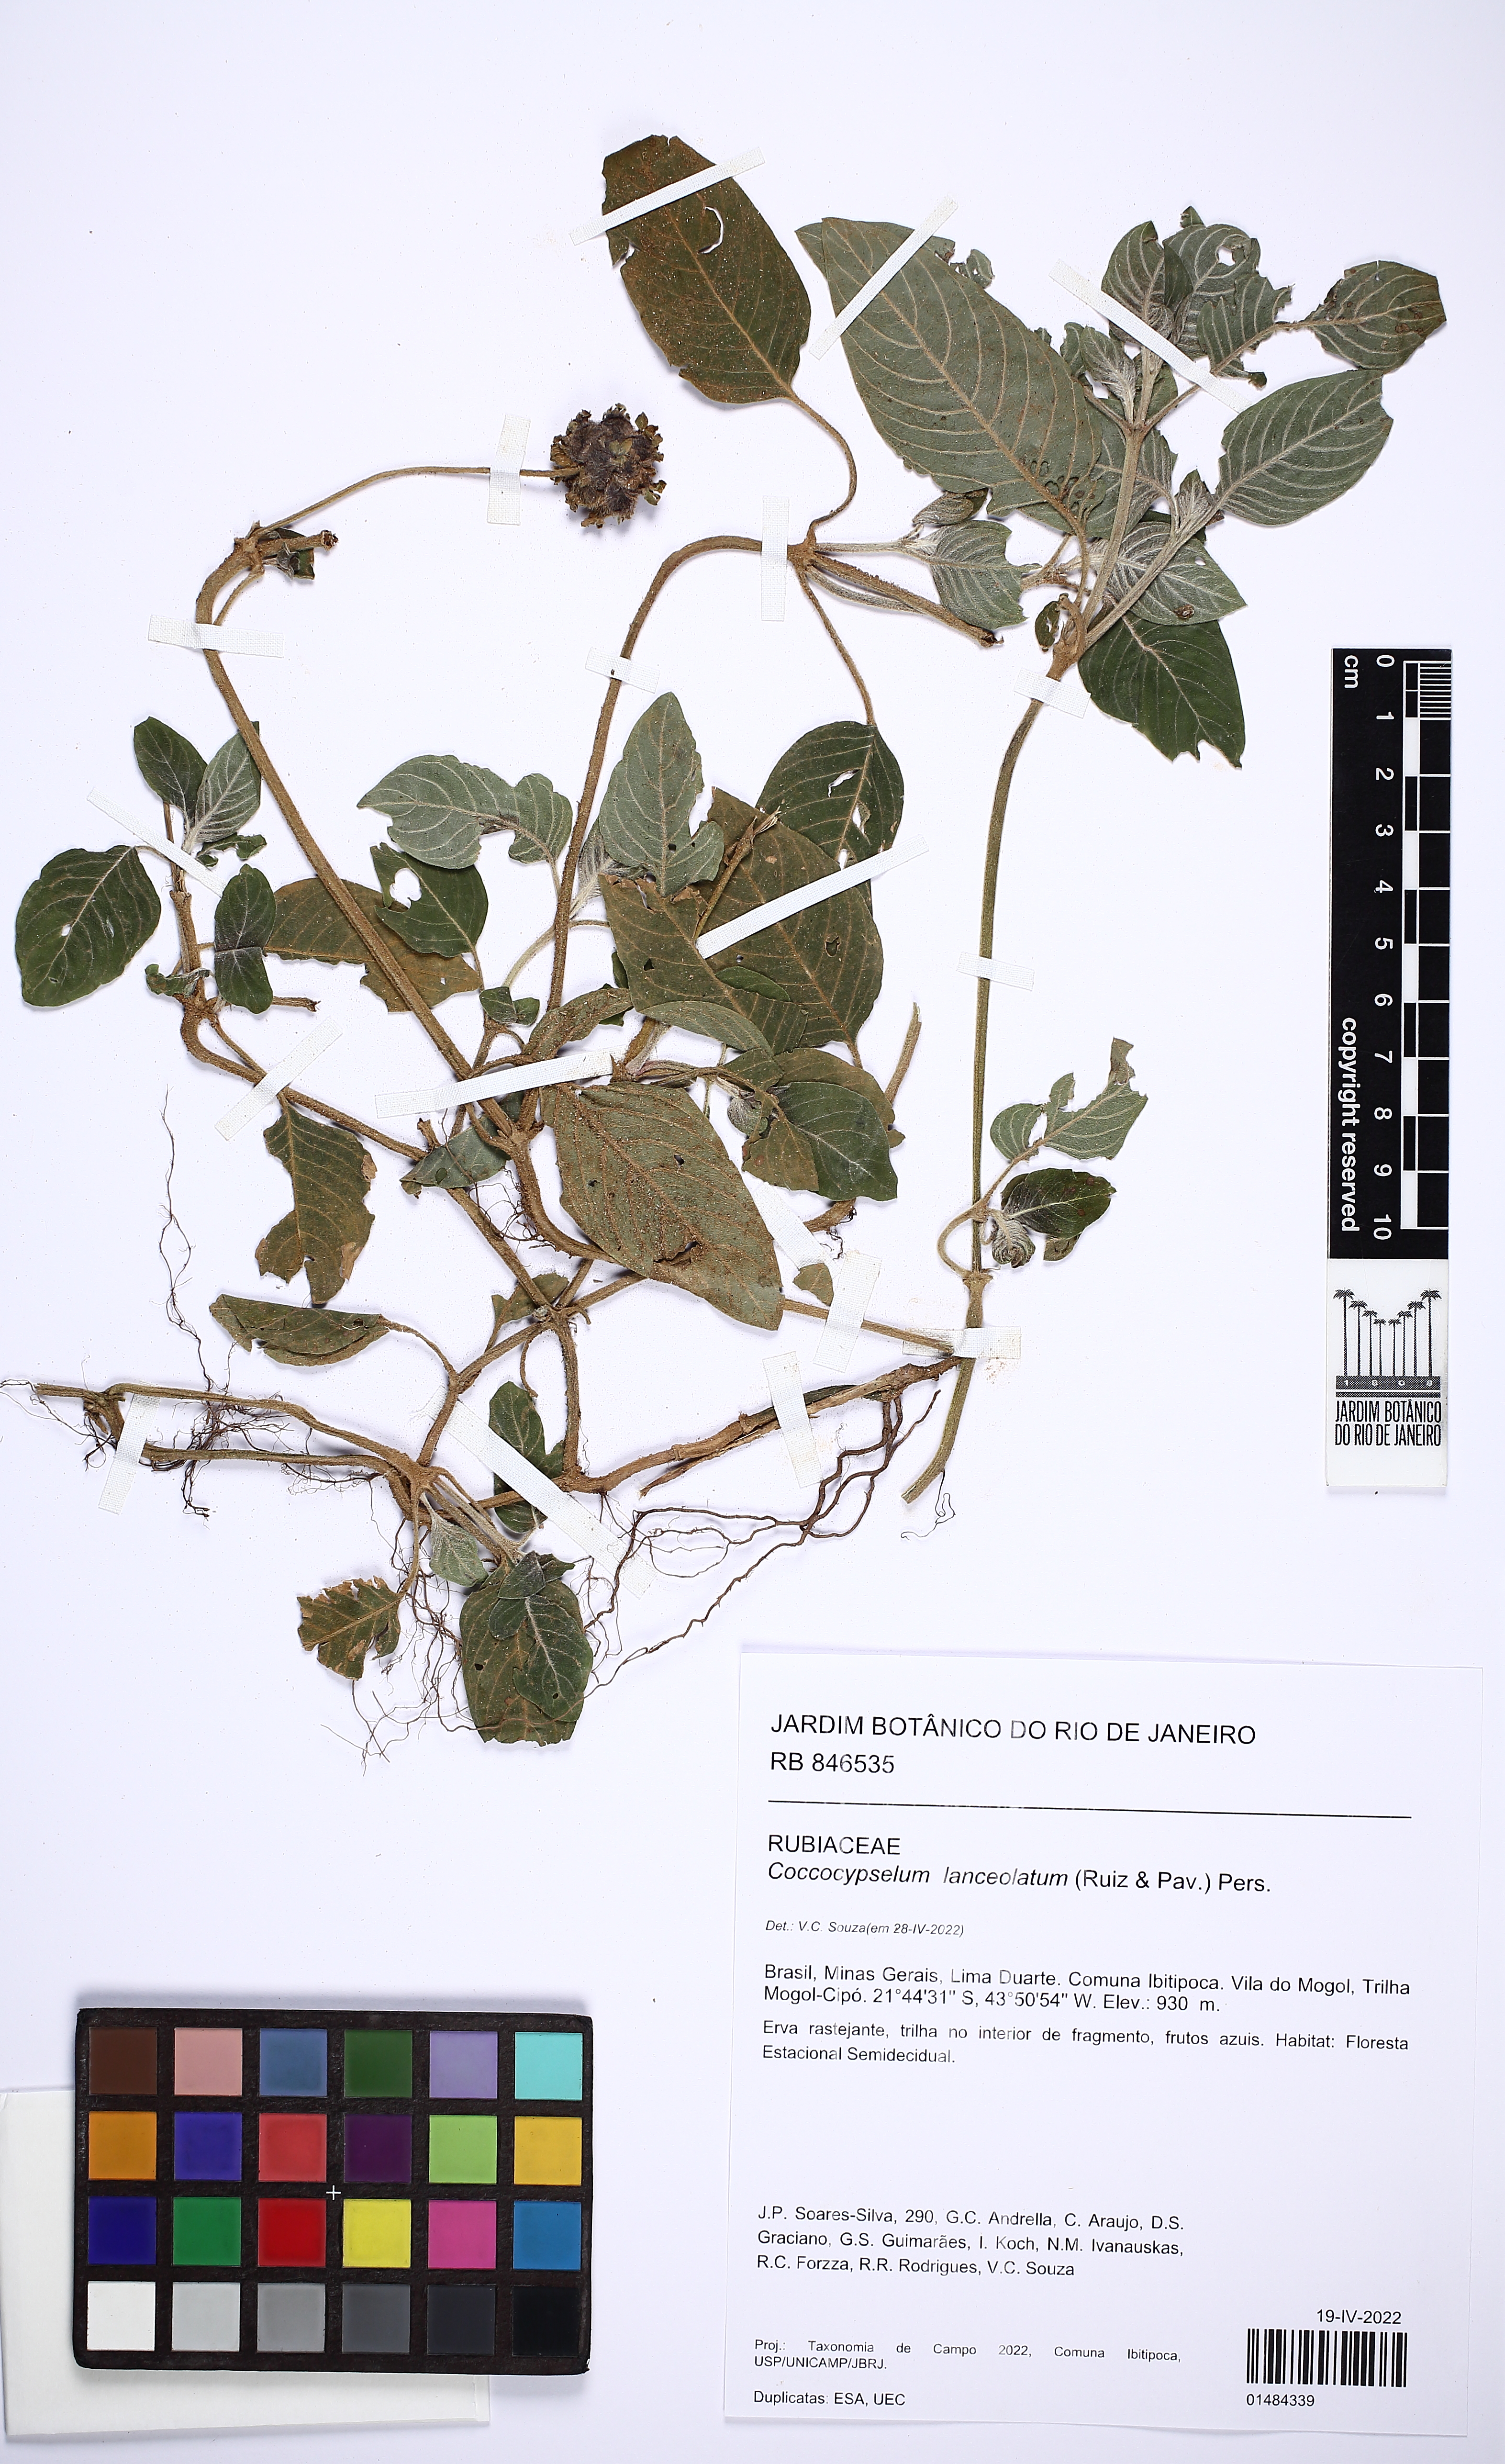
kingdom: Plantae
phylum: Tracheophyta
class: Magnoliopsida
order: Gentianales
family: Rubiaceae
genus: Coccocypselum
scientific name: Coccocypselum lanceolatum
